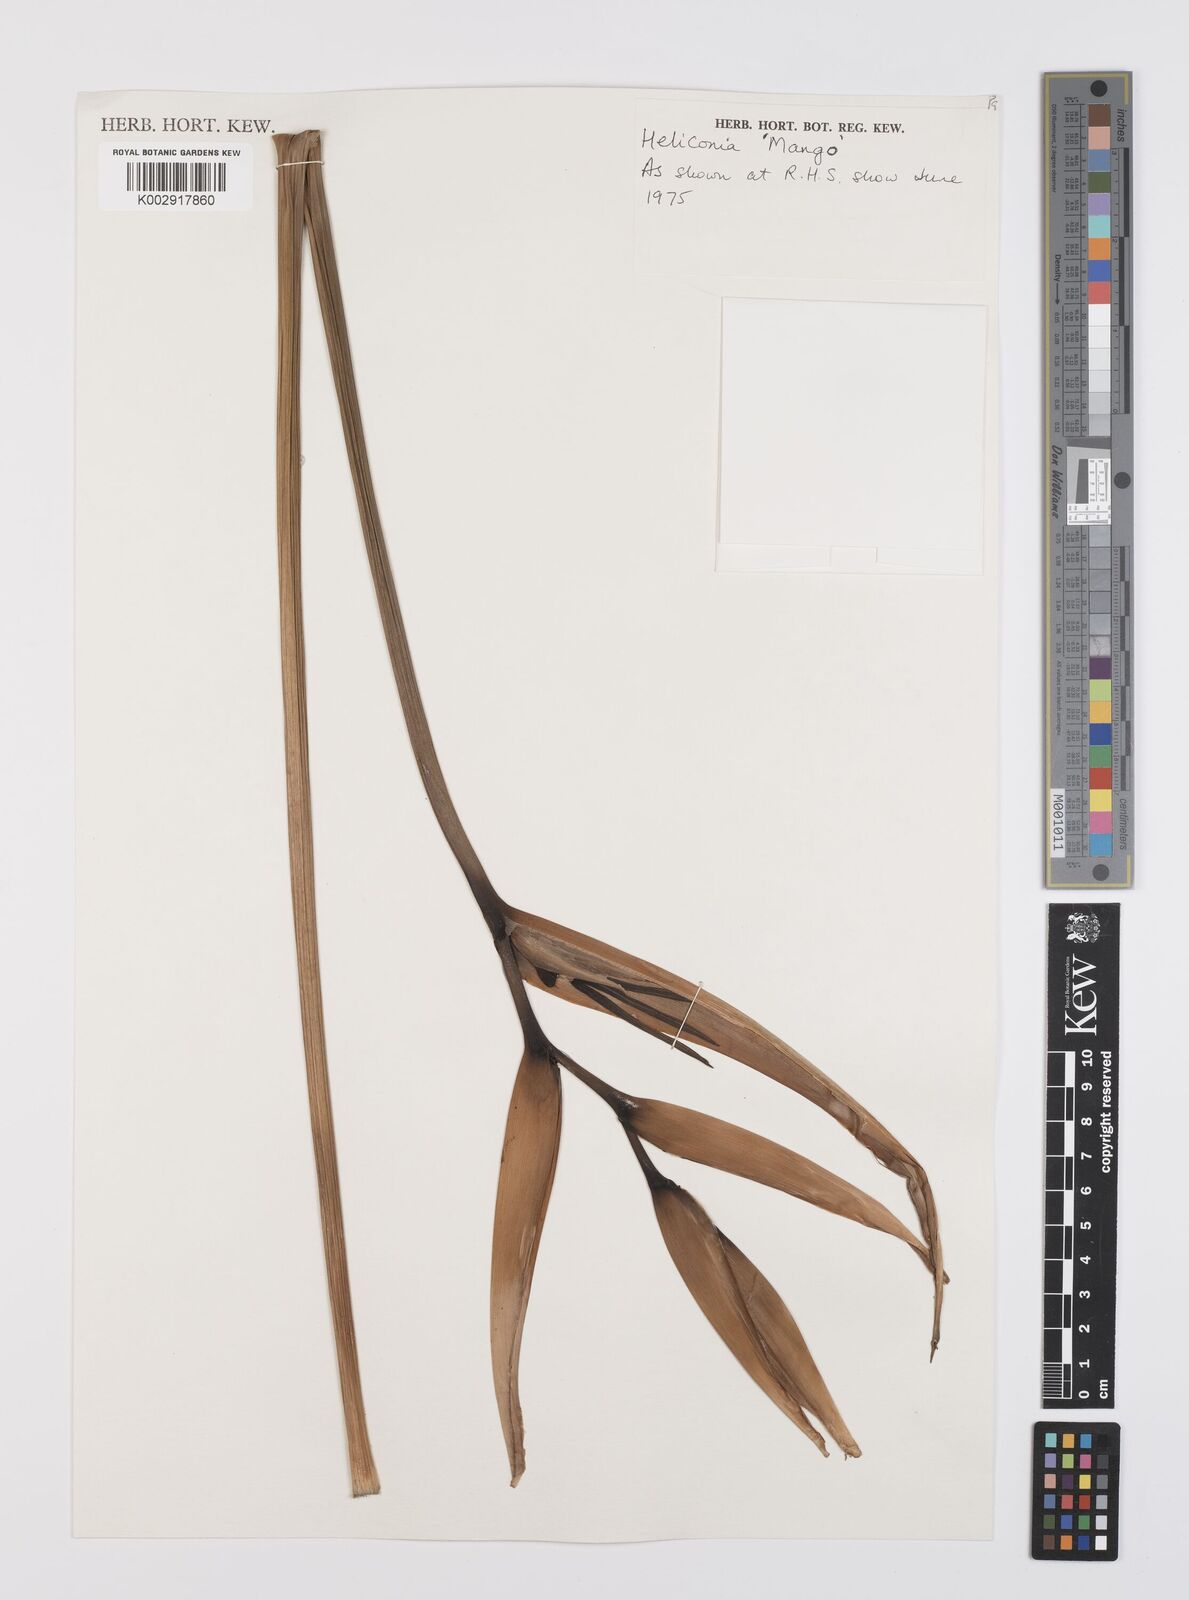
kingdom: Plantae
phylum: Tracheophyta
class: Liliopsida
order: Zingiberales
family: Heliconiaceae
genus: Heliconia
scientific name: Heliconia
